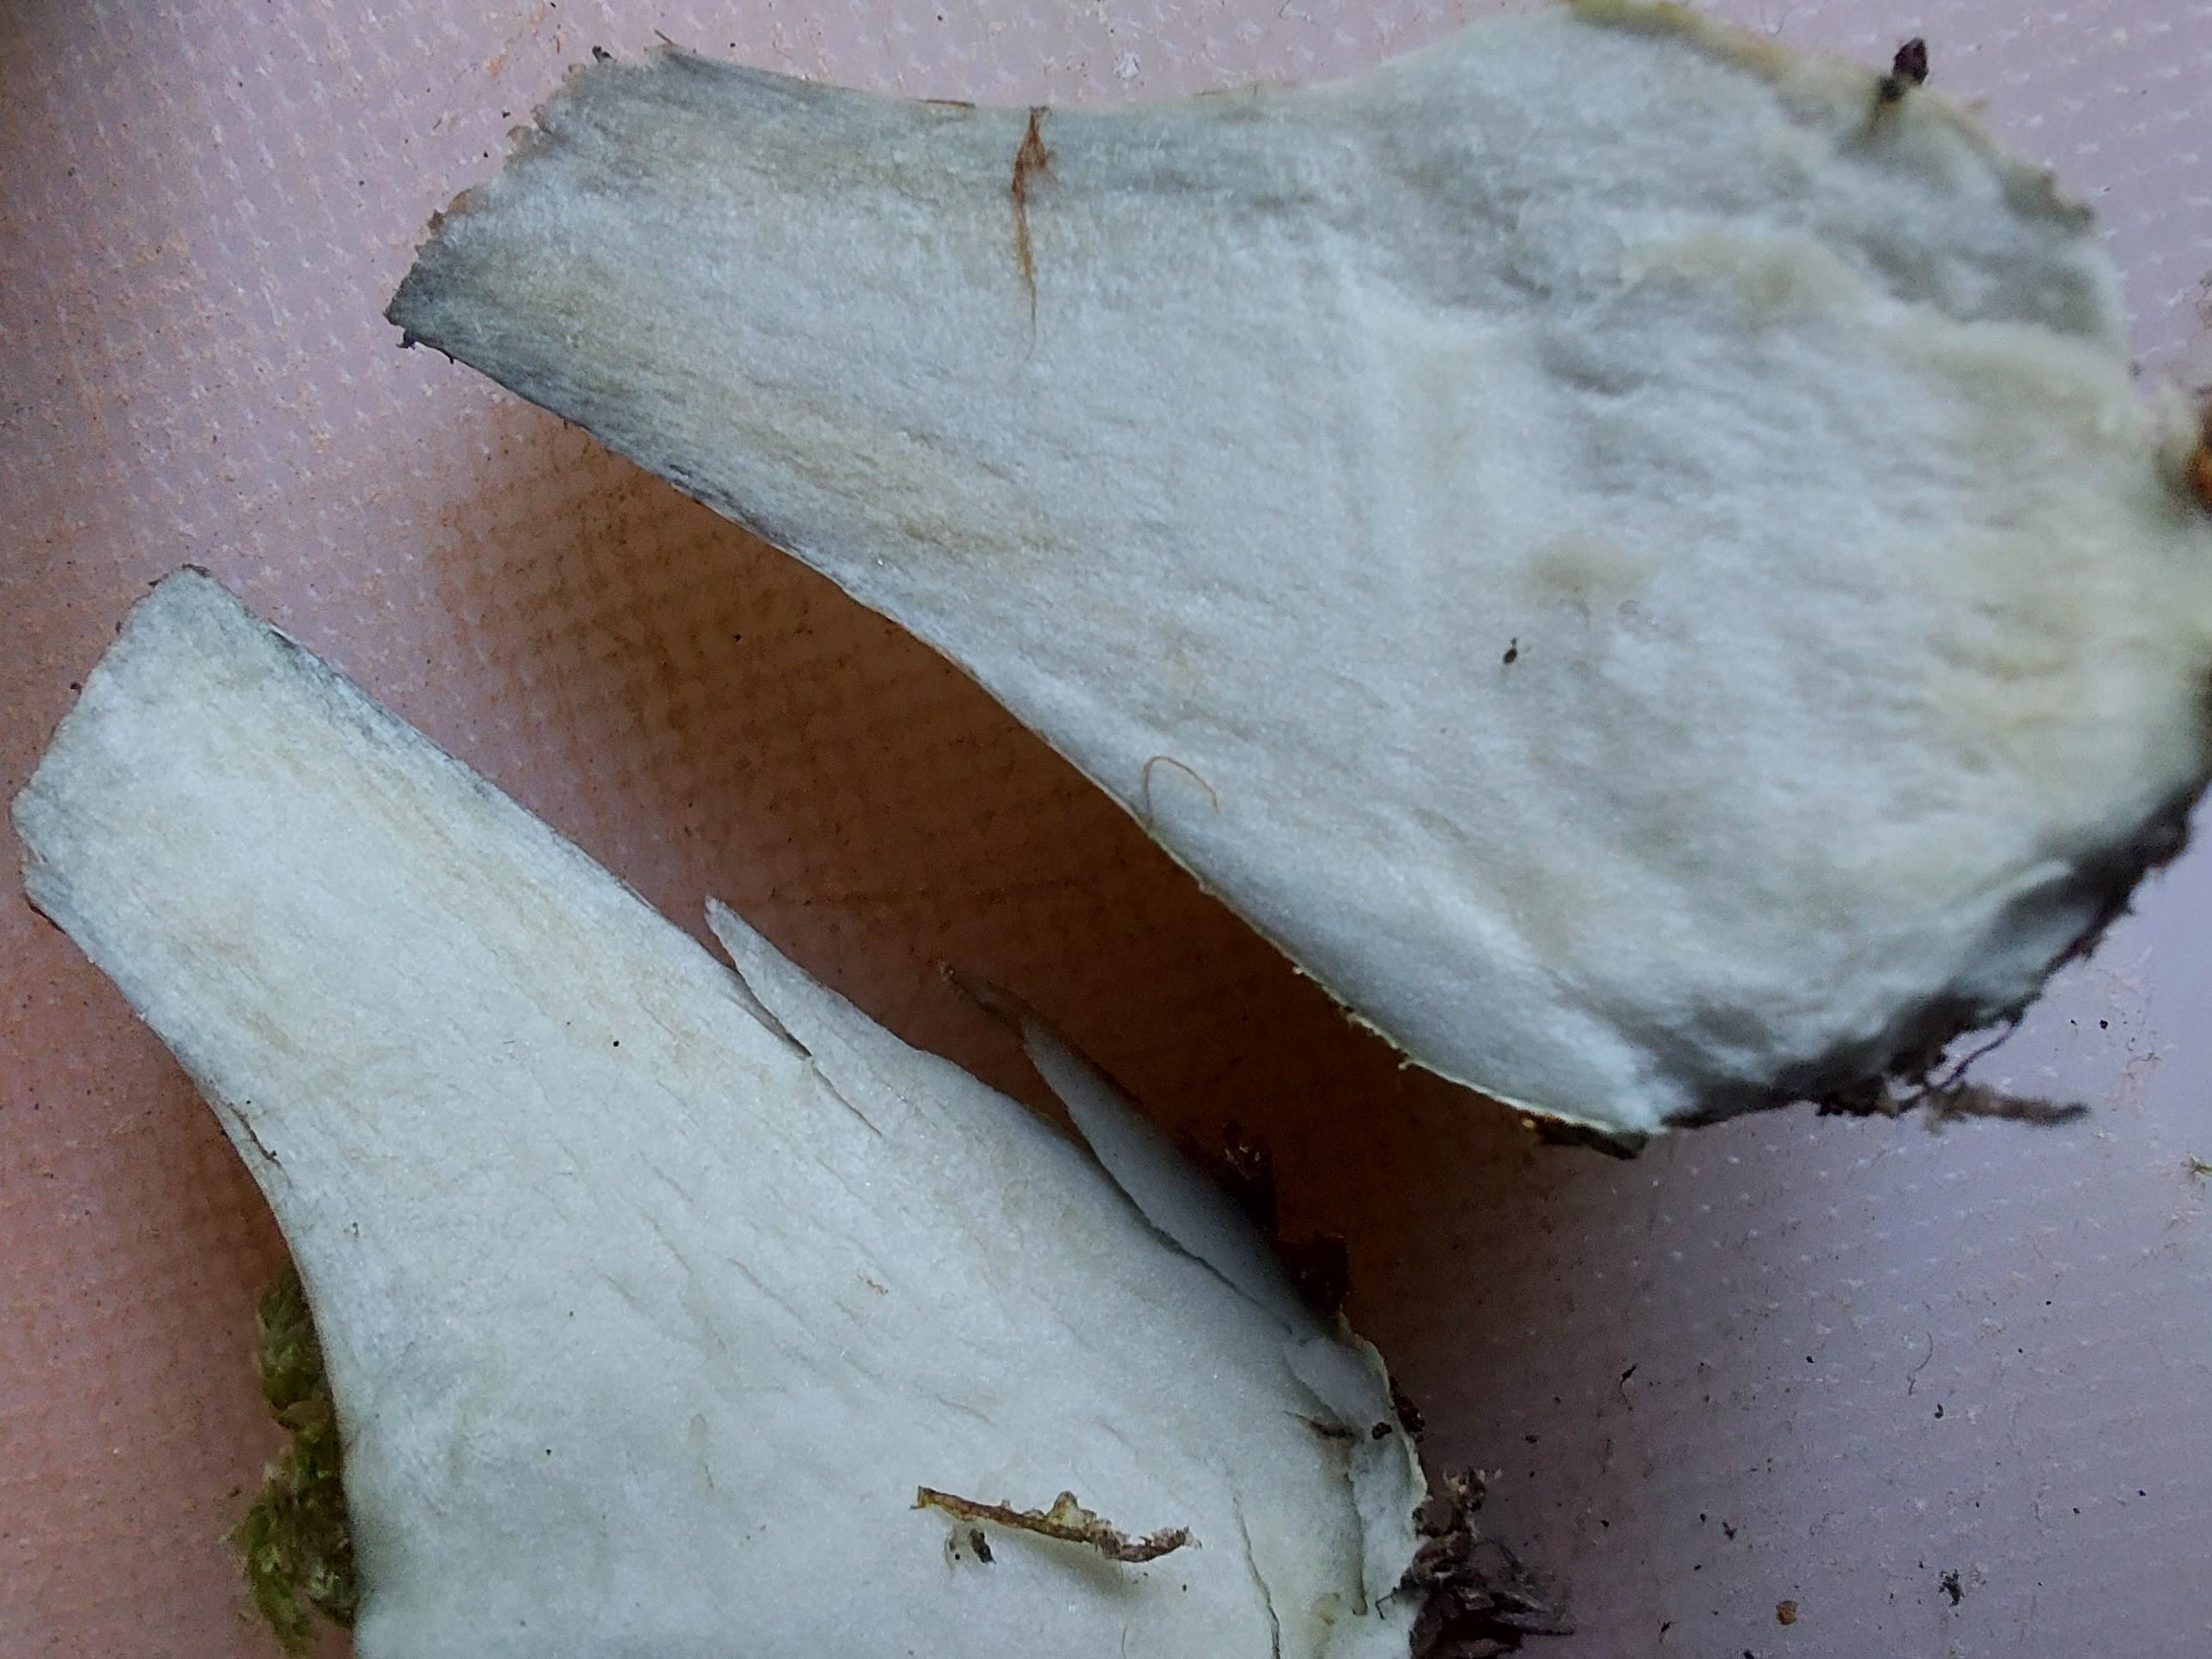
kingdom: Fungi
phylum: Basidiomycota
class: Agaricomycetes
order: Agaricales
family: Cortinariaceae
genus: Thaxterogaster
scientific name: Thaxterogaster purpurascens
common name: purpurbrun slørhat
